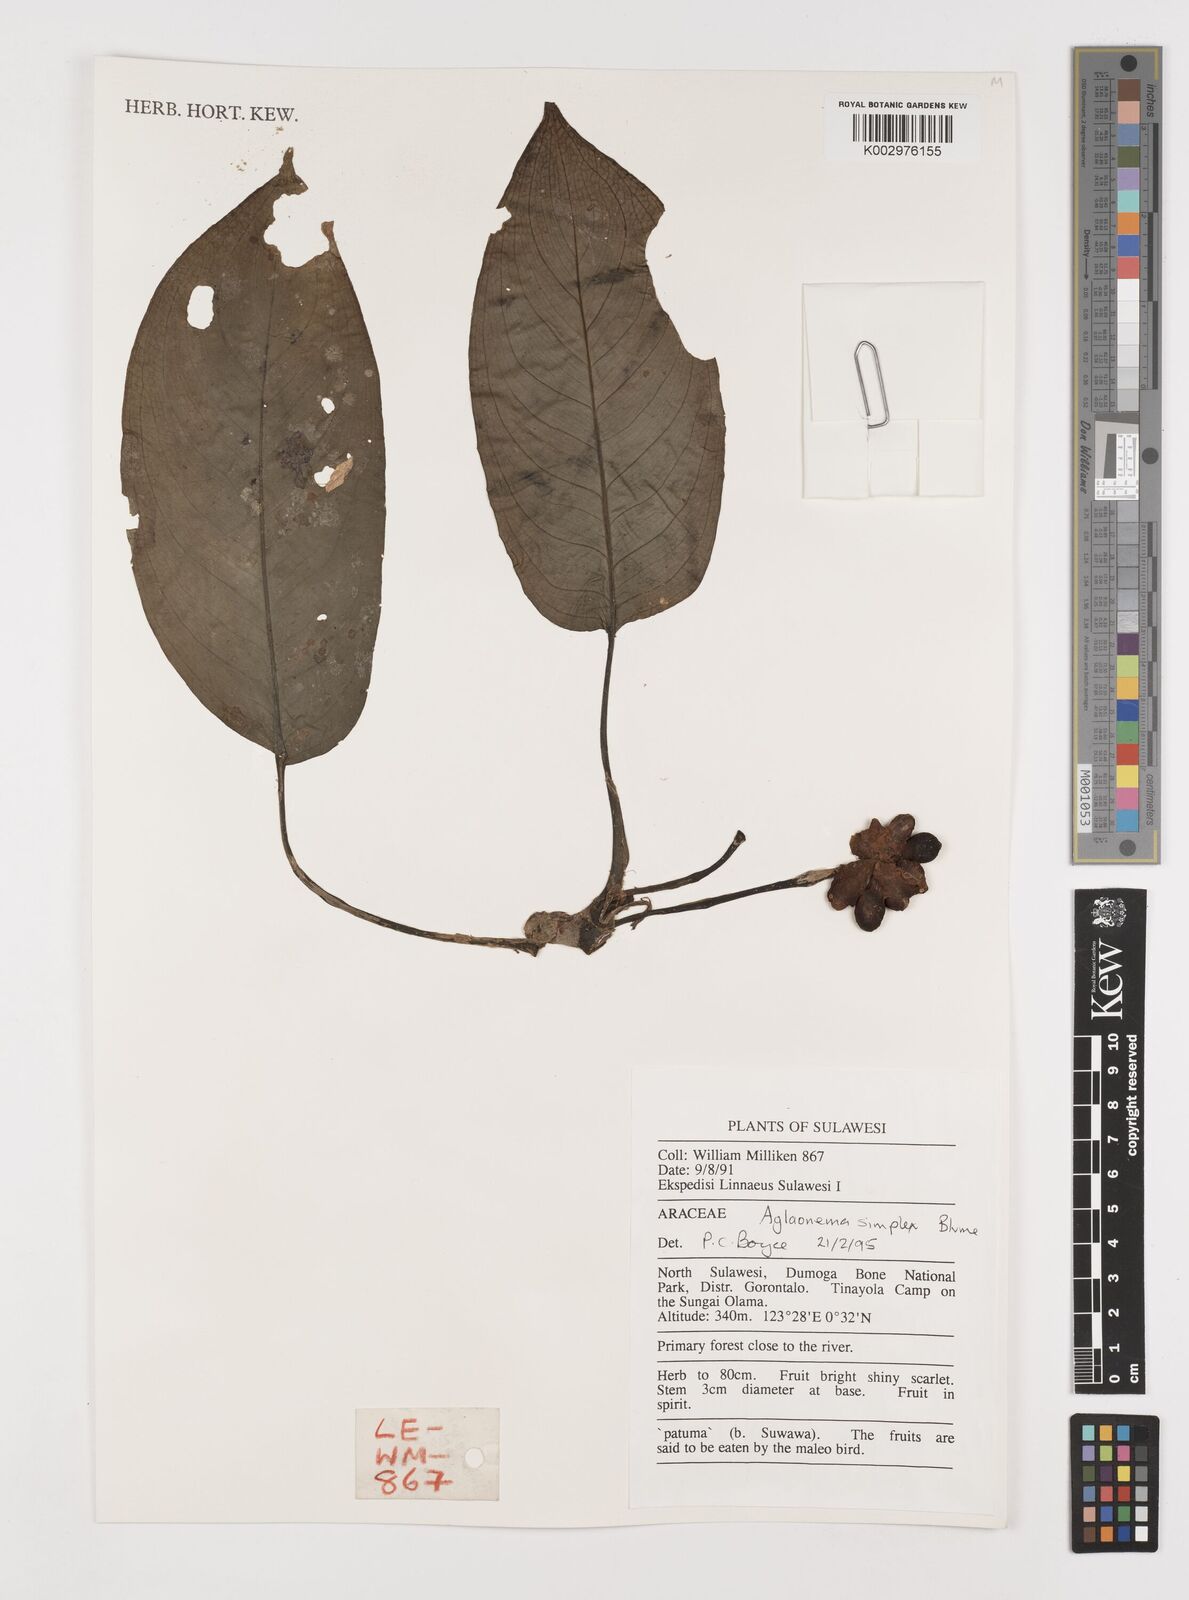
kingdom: Plantae
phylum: Tracheophyta
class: Liliopsida
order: Alismatales
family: Araceae
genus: Aglaonema
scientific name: Aglaonema simplex
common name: Malayan-sword
